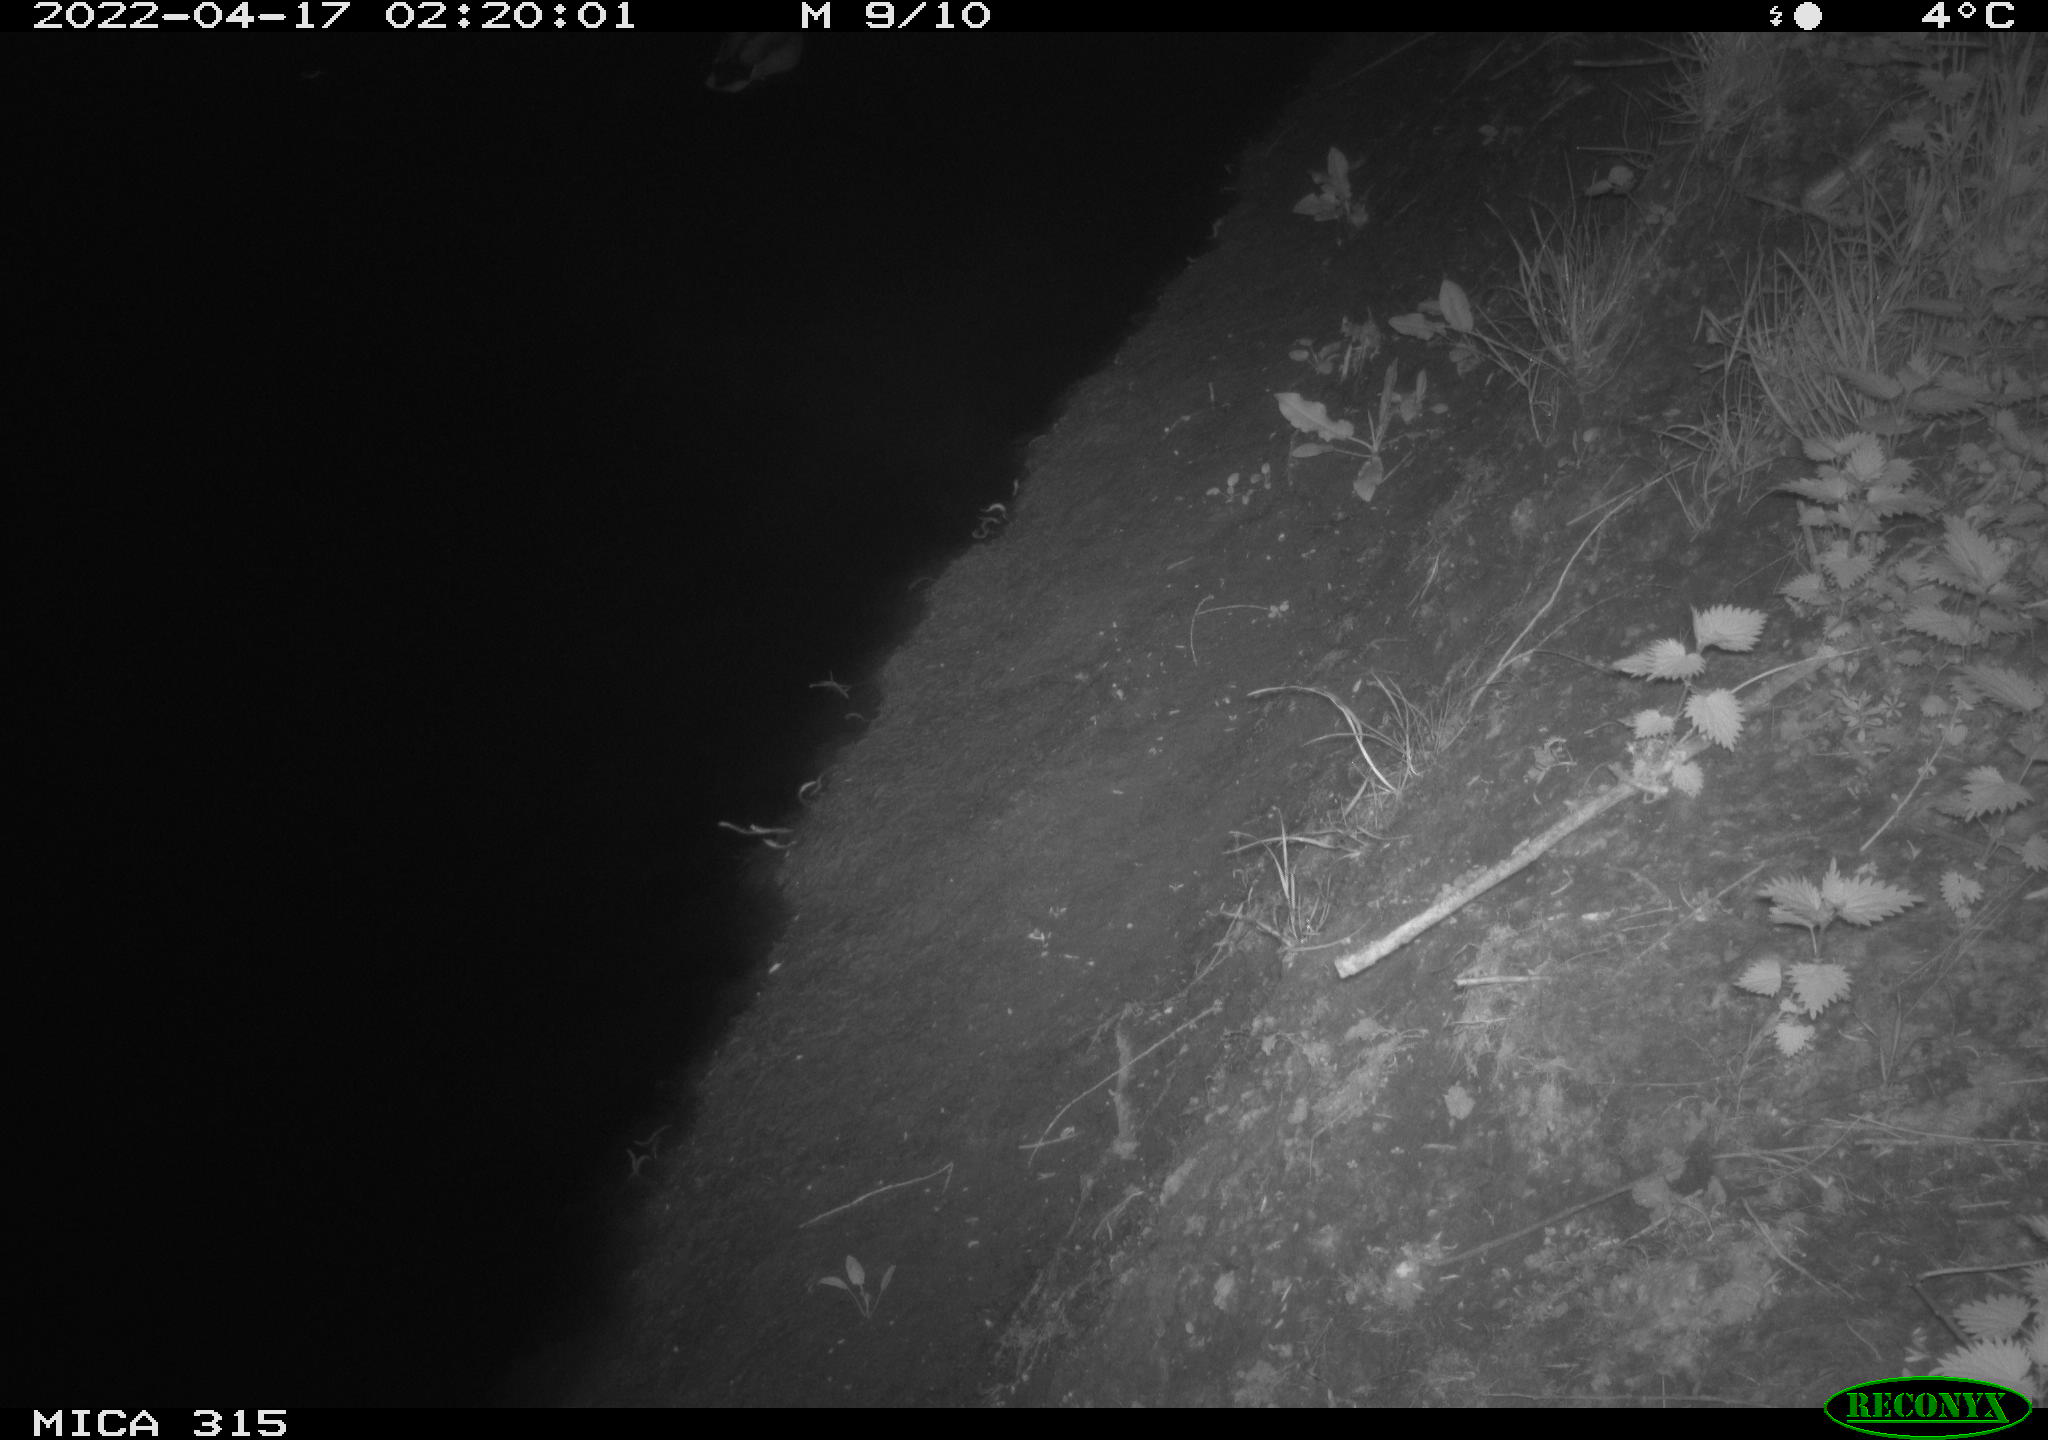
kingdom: Animalia
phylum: Chordata
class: Aves
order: Anseriformes
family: Anatidae
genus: Anas
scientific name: Anas platyrhynchos
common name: Mallard
